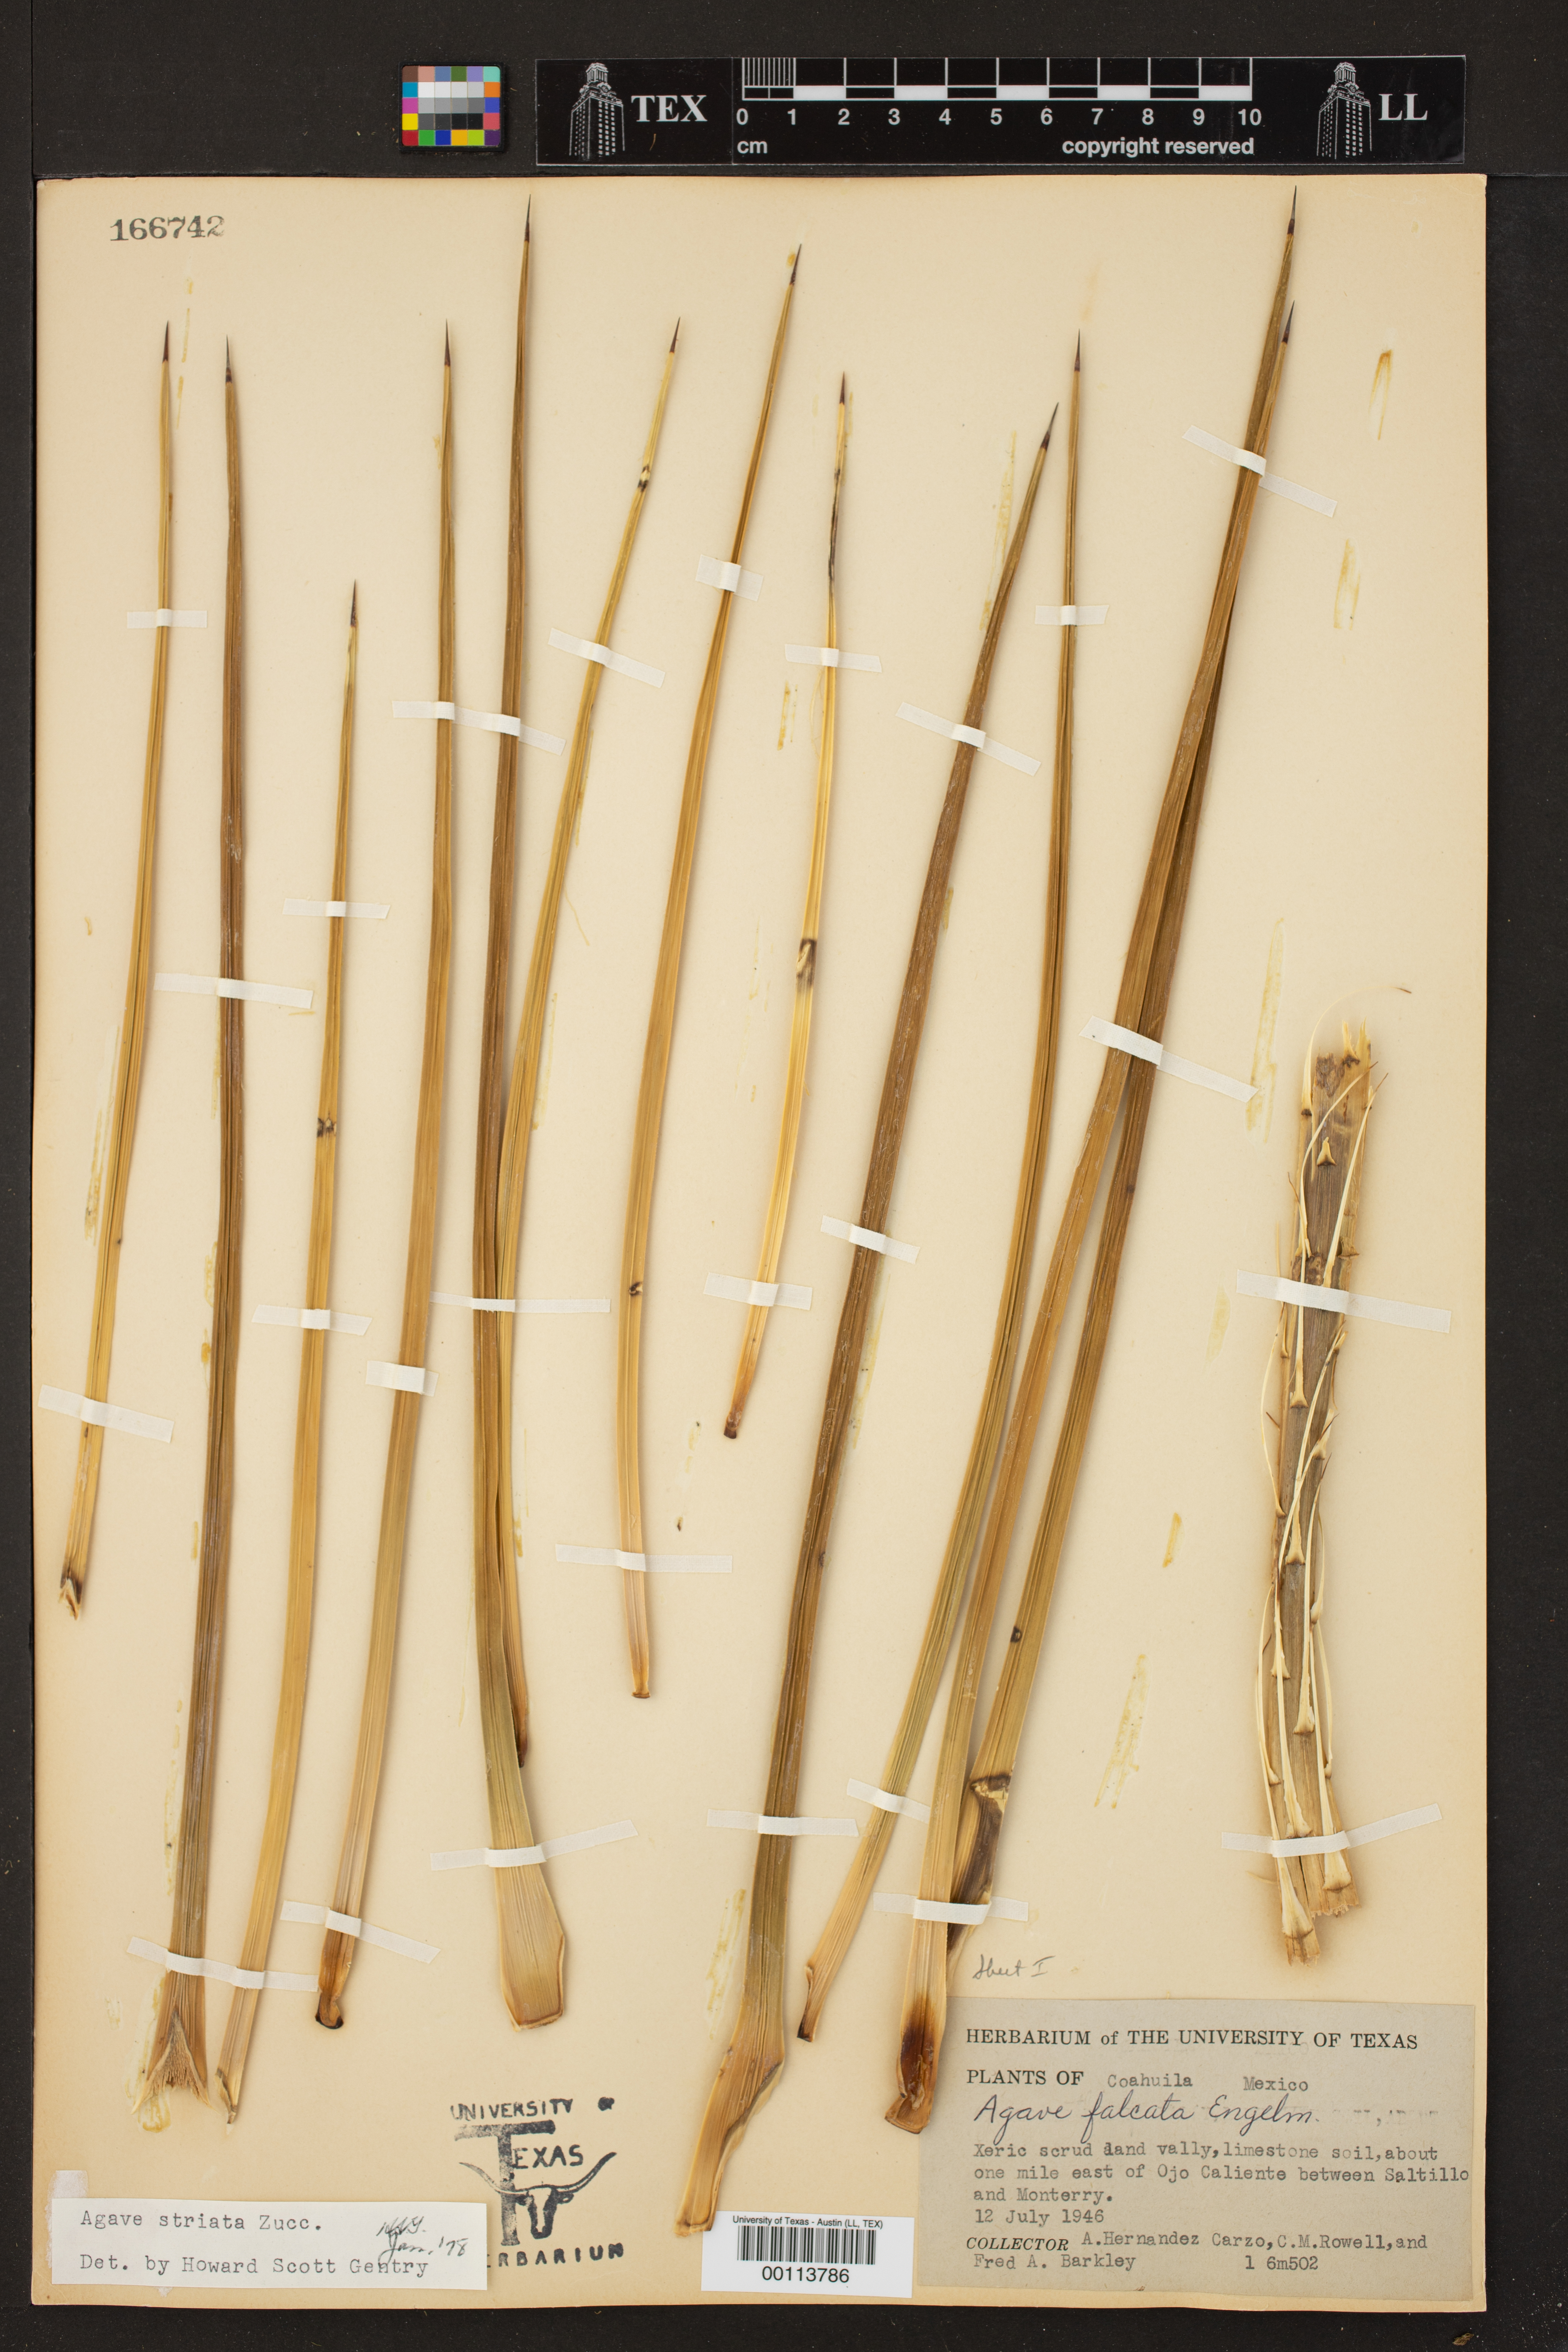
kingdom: Plantae
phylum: Tracheophyta
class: Liliopsida
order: Asparagales
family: Asparagaceae
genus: Agave
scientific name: Agave striata
